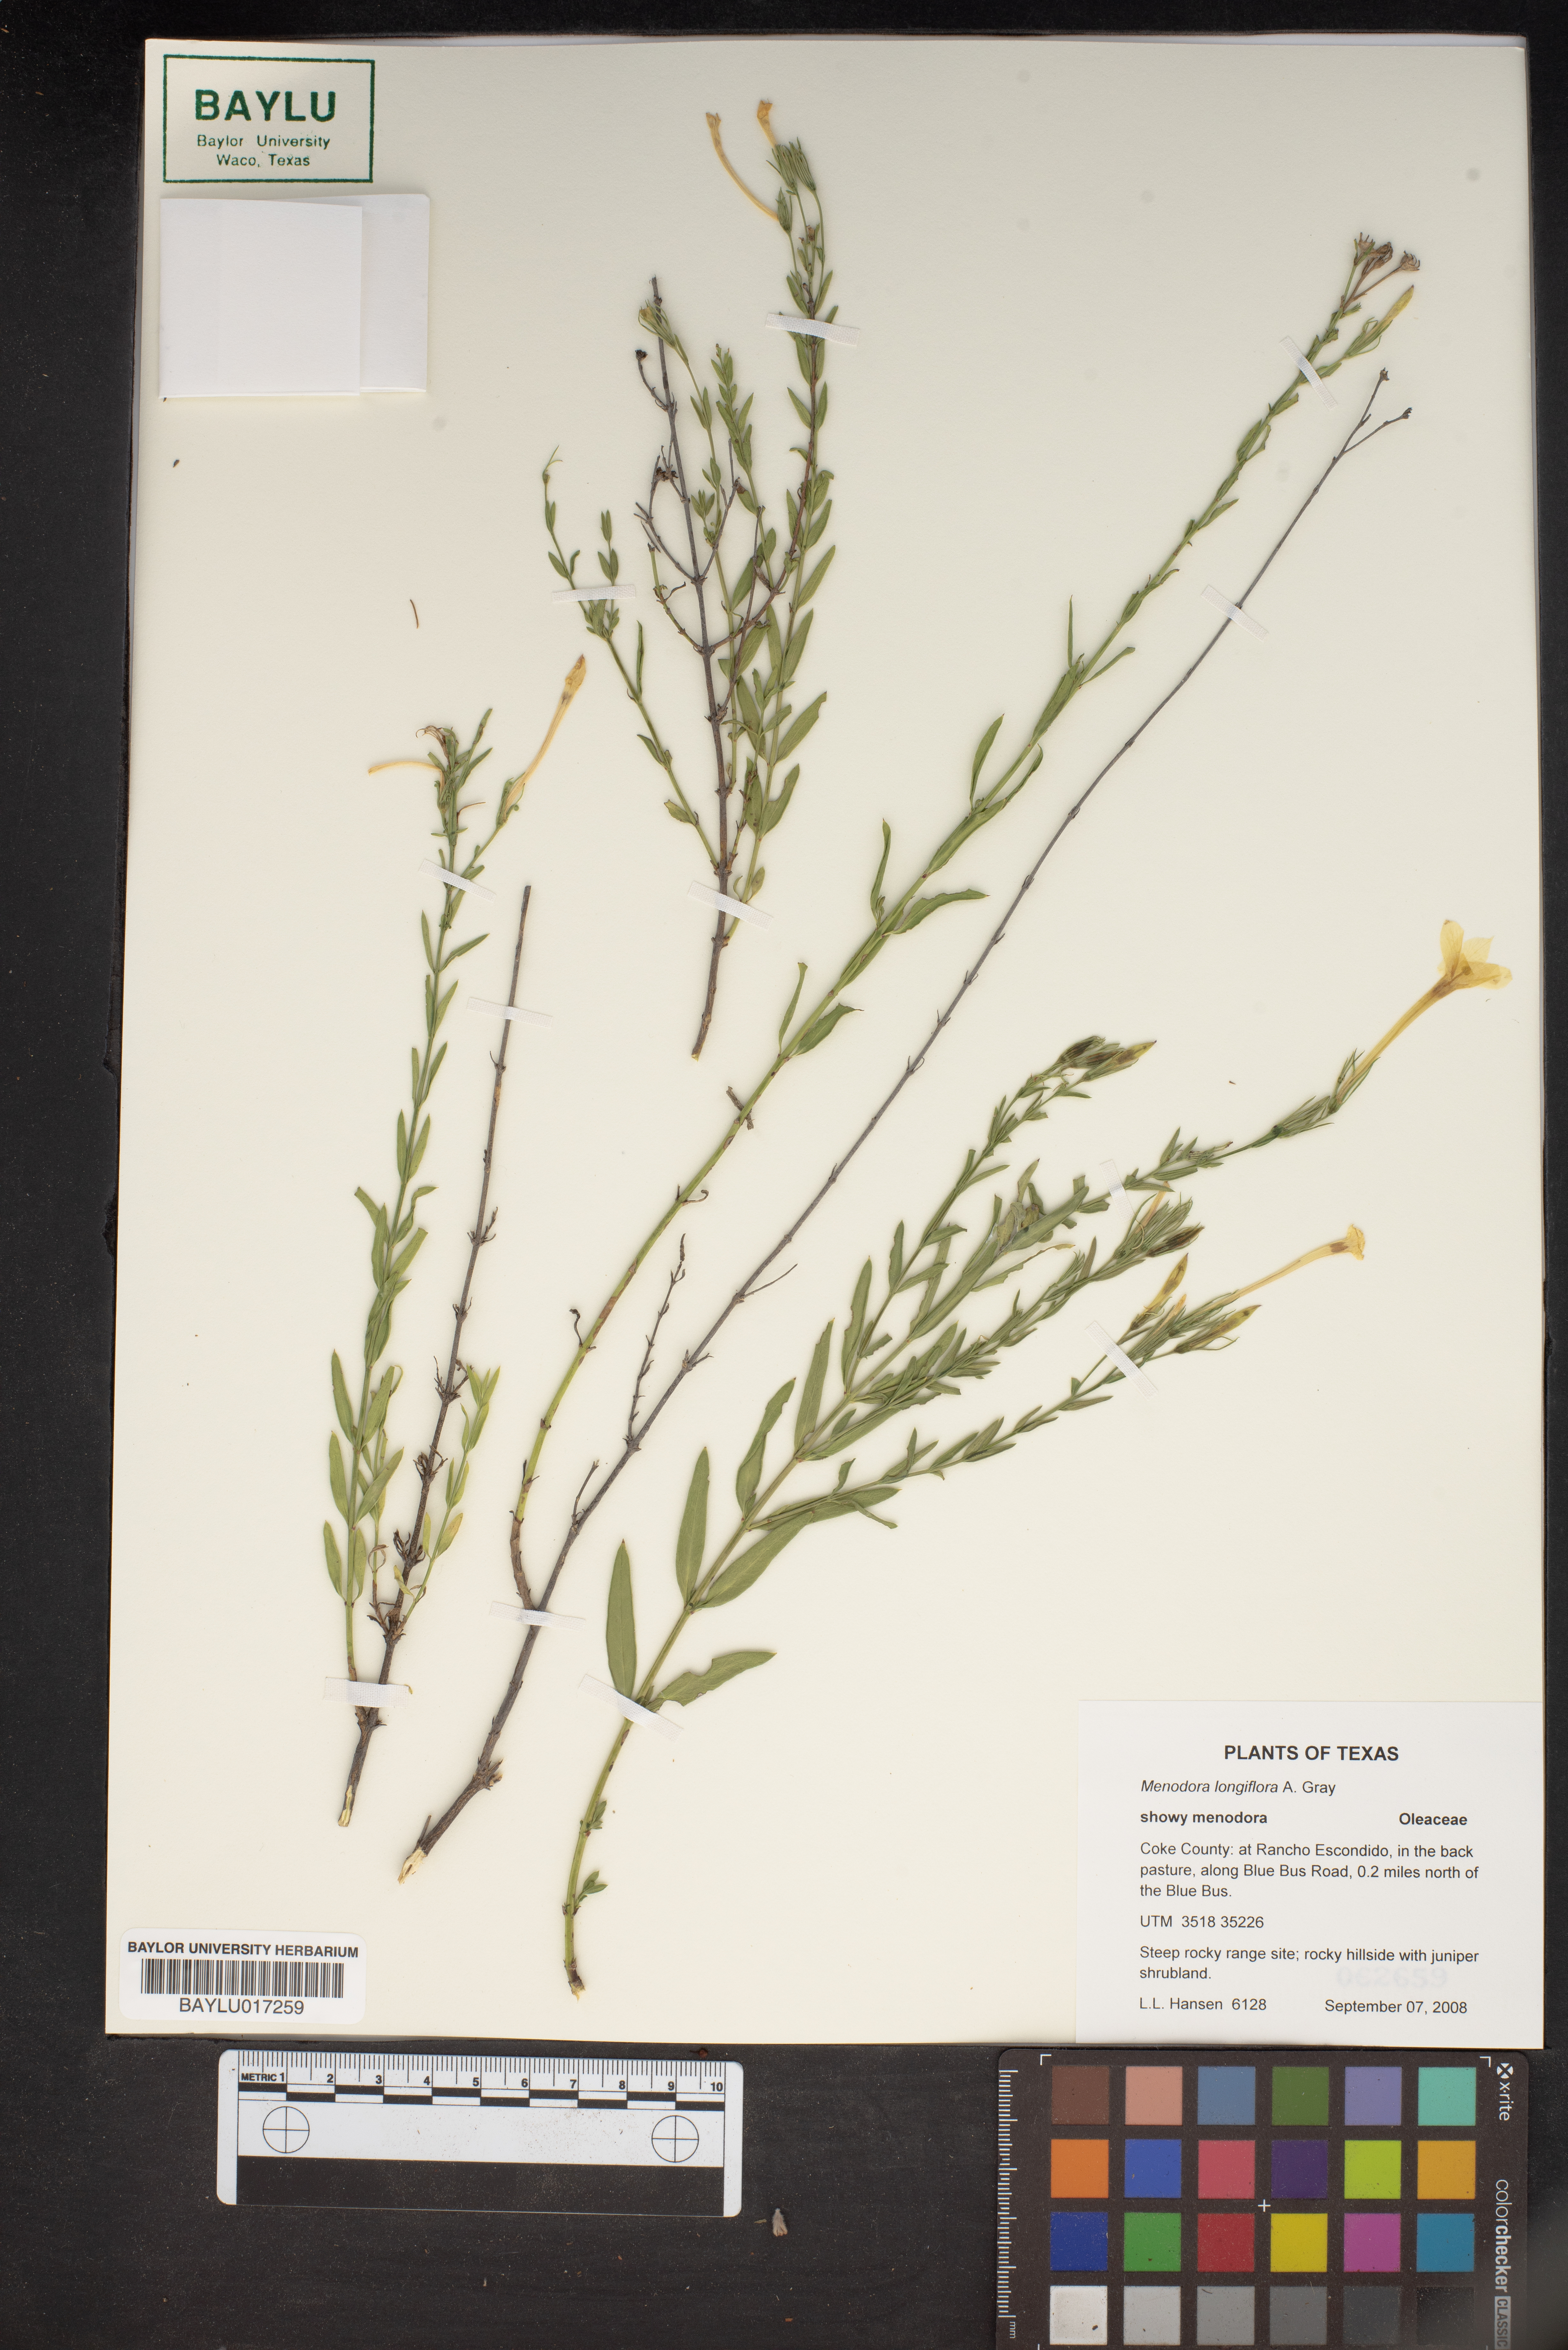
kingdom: Plantae
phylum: Tracheophyta
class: Magnoliopsida
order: Lamiales
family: Oleaceae
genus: Menodora
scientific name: Menodora longiflora
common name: Showy menodora
